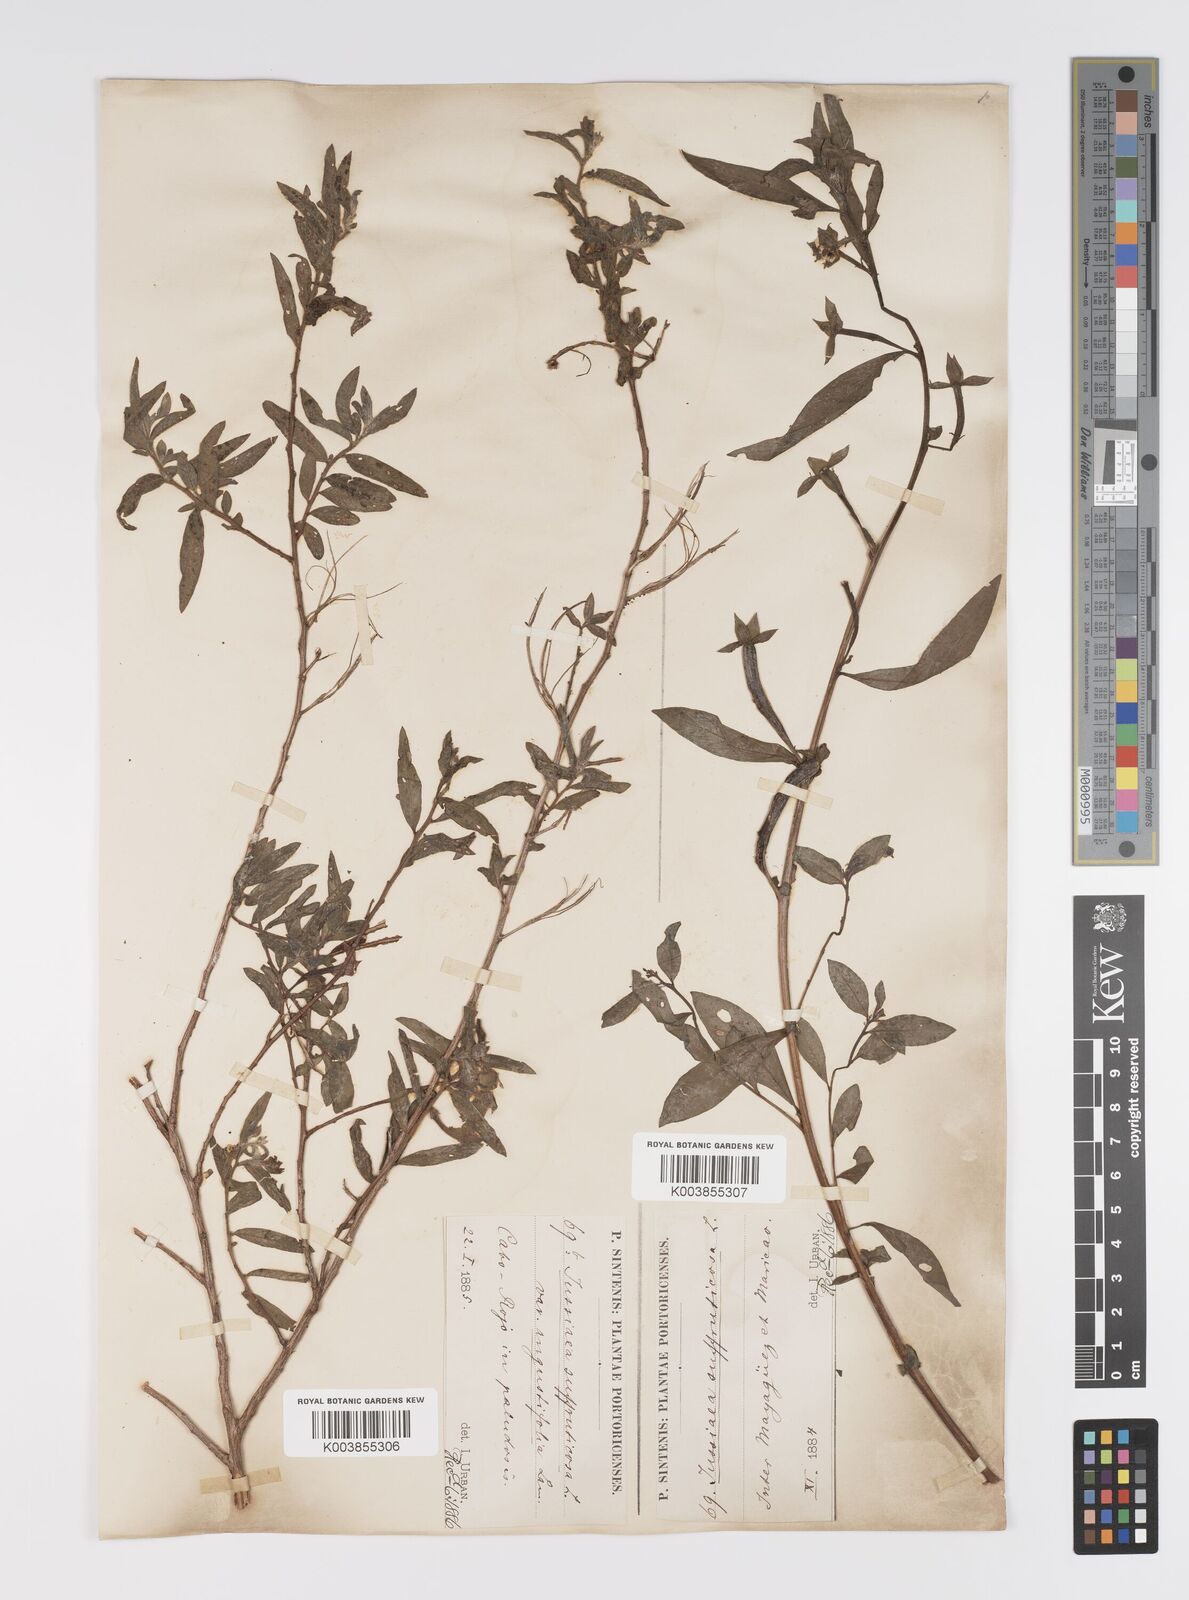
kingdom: Plantae
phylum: Tracheophyta
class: Magnoliopsida
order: Myrtales
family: Onagraceae
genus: Ludwigia
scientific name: Ludwigia
